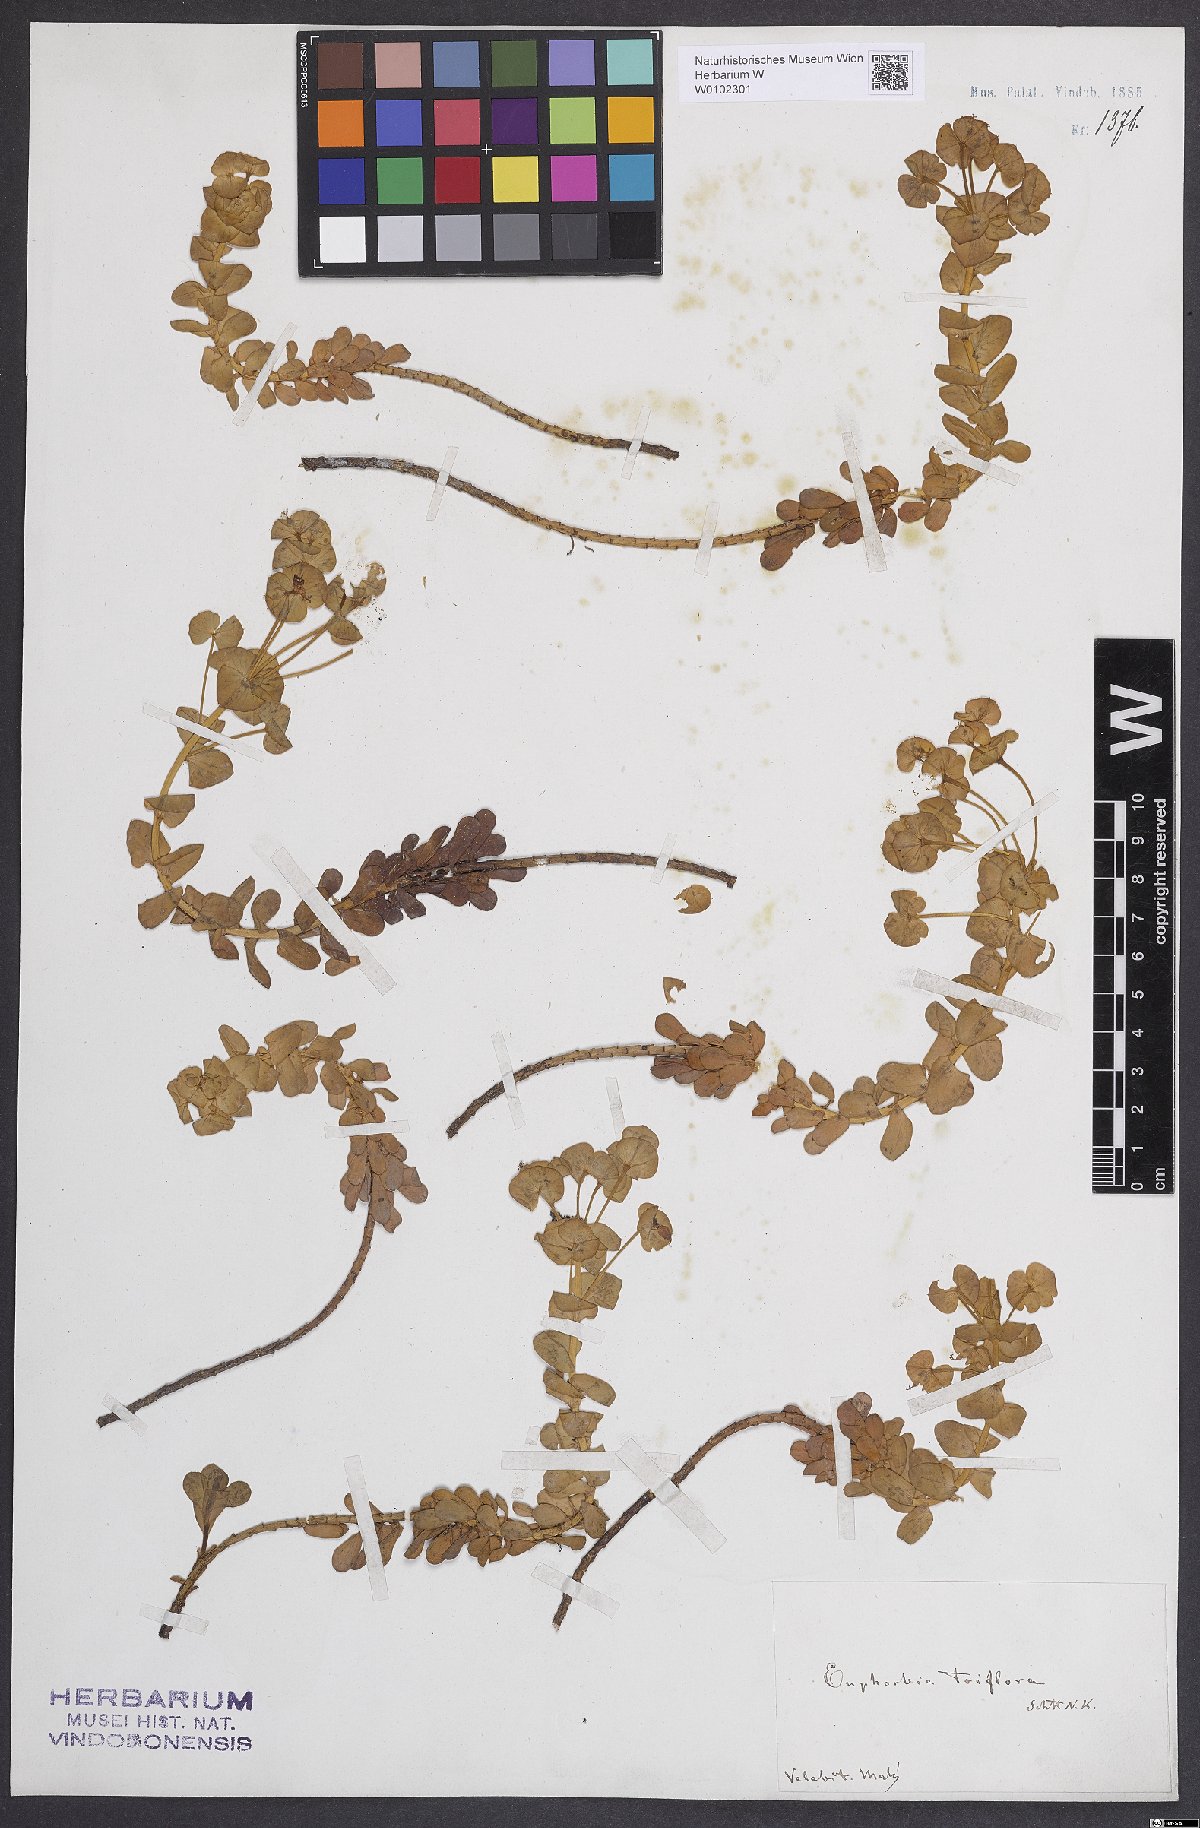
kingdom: Plantae
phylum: Tracheophyta
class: Magnoliopsida
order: Malpighiales
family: Euphorbiaceae
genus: Euphorbia
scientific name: Euphorbia triflora
